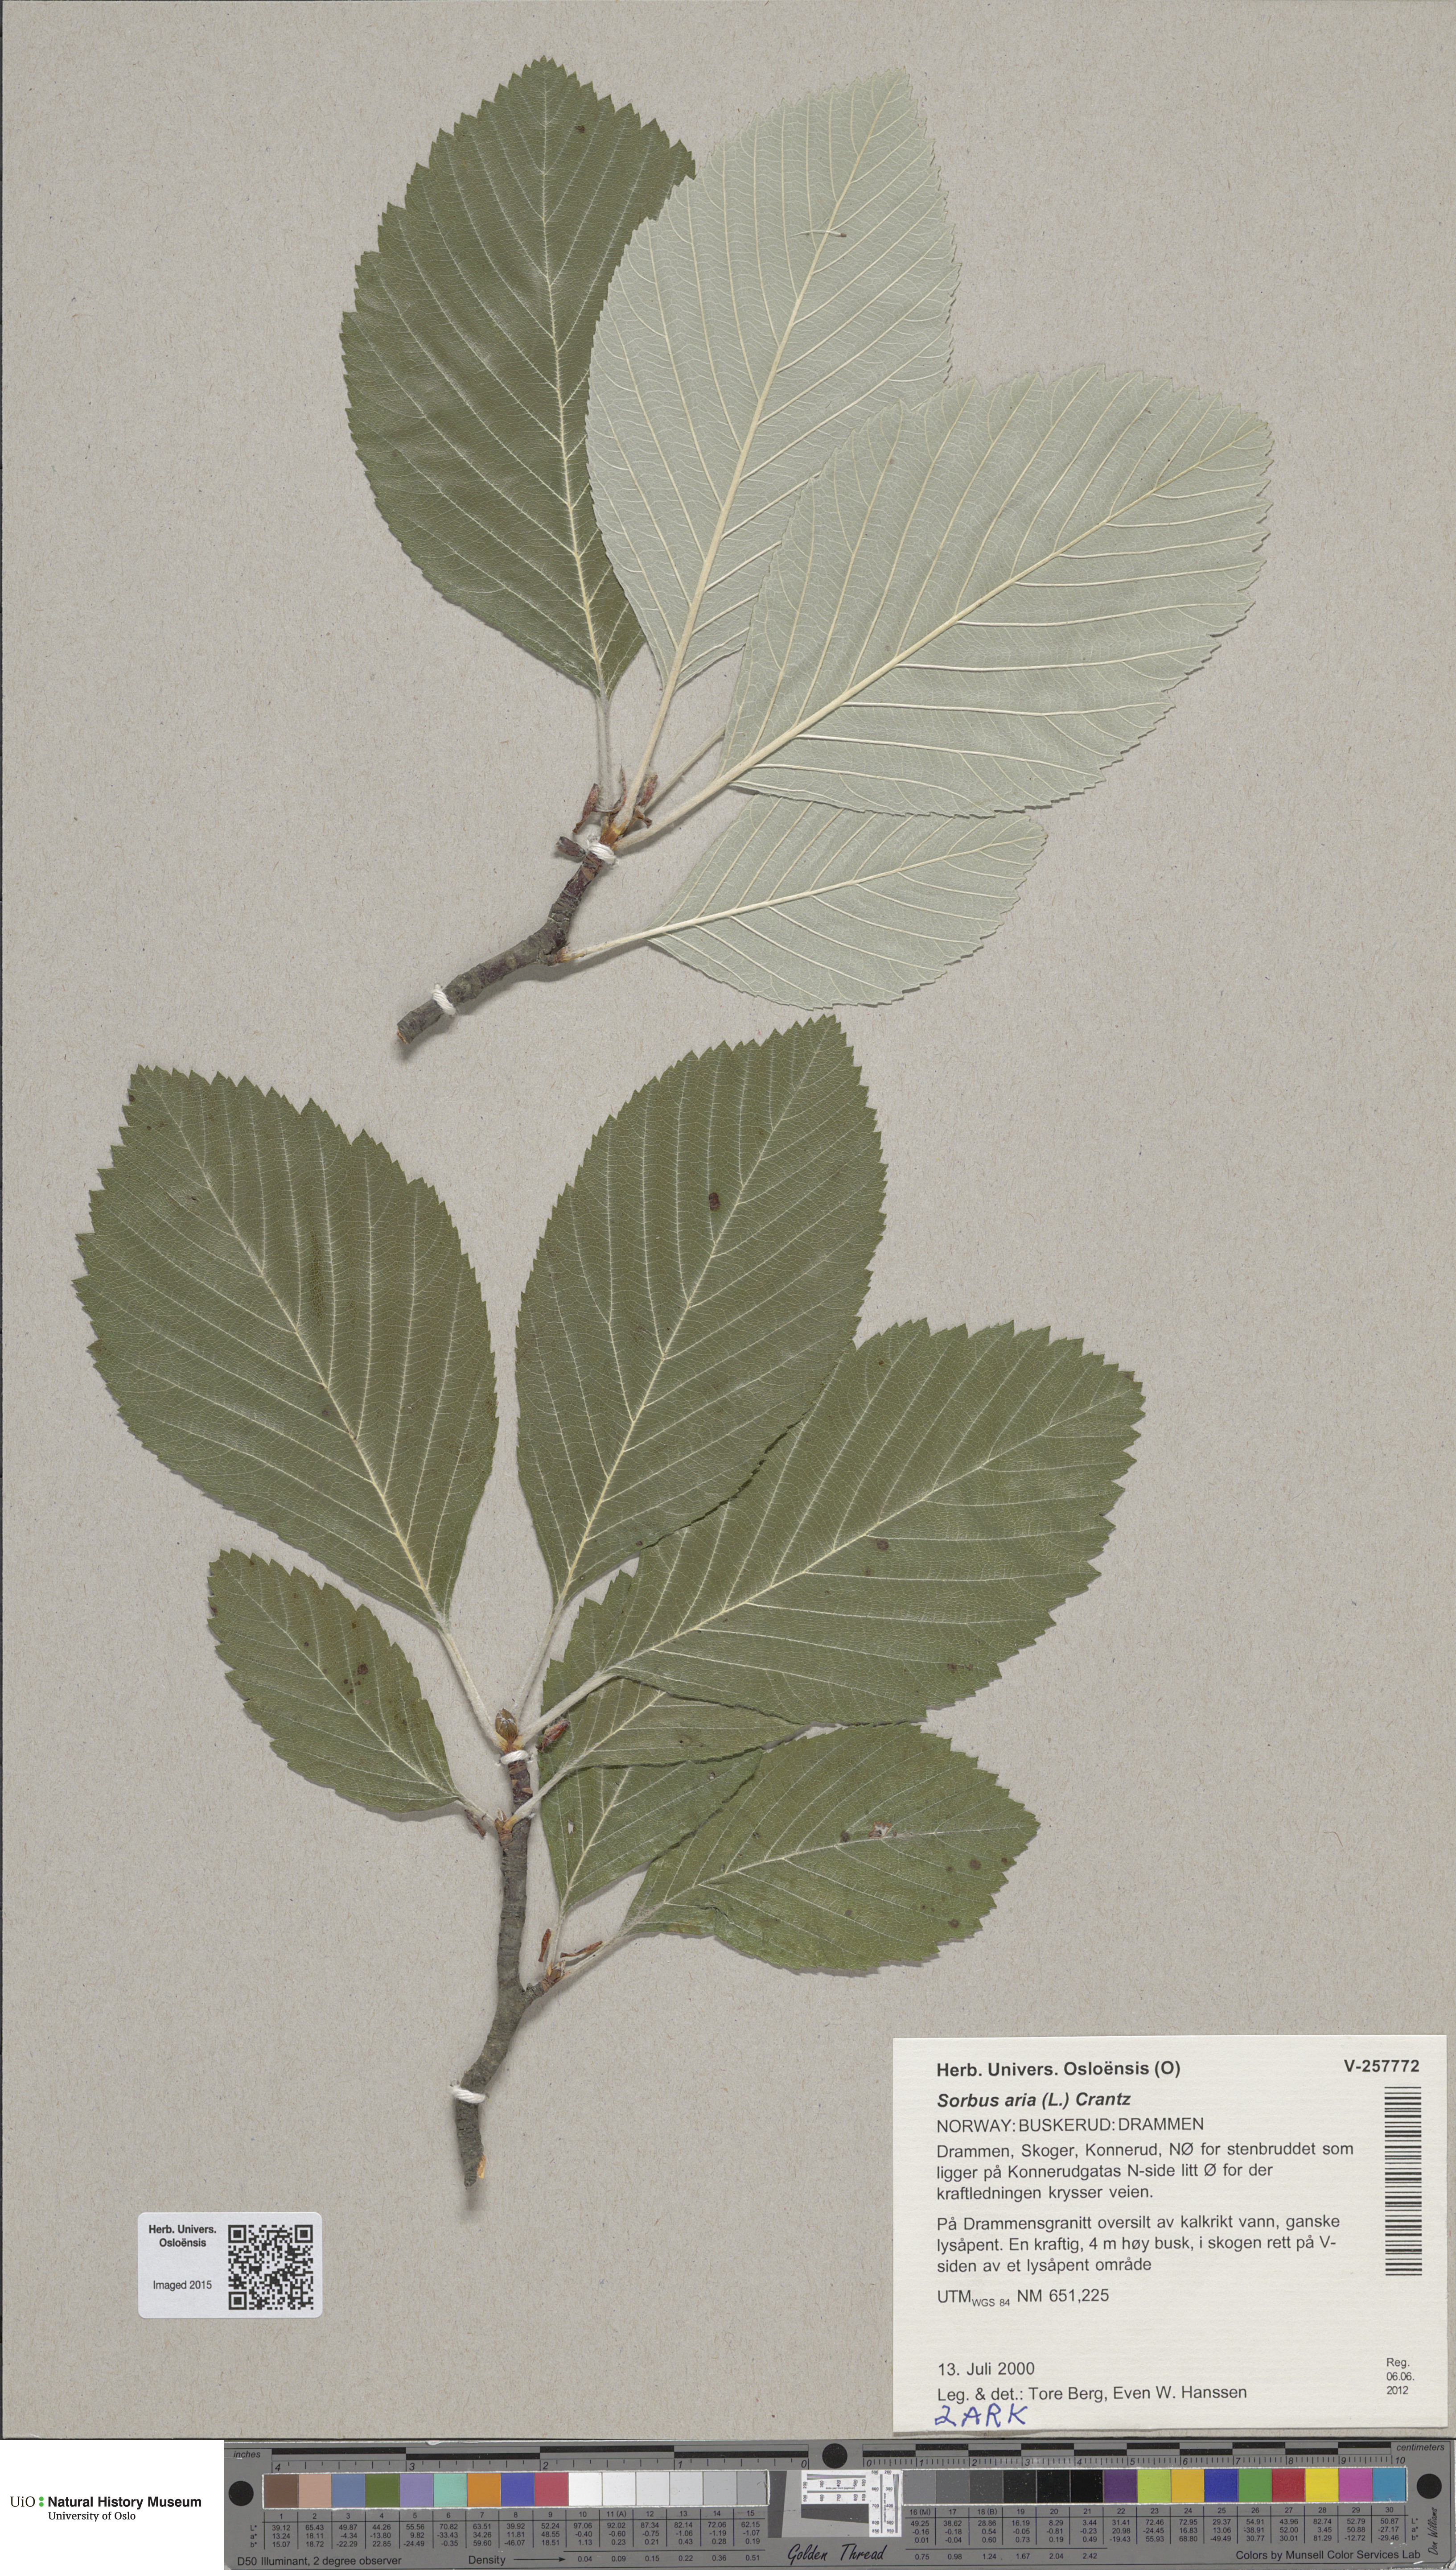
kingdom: Plantae
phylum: Tracheophyta
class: Magnoliopsida
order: Rosales
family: Rosaceae
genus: Aria
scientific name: Aria edulis
